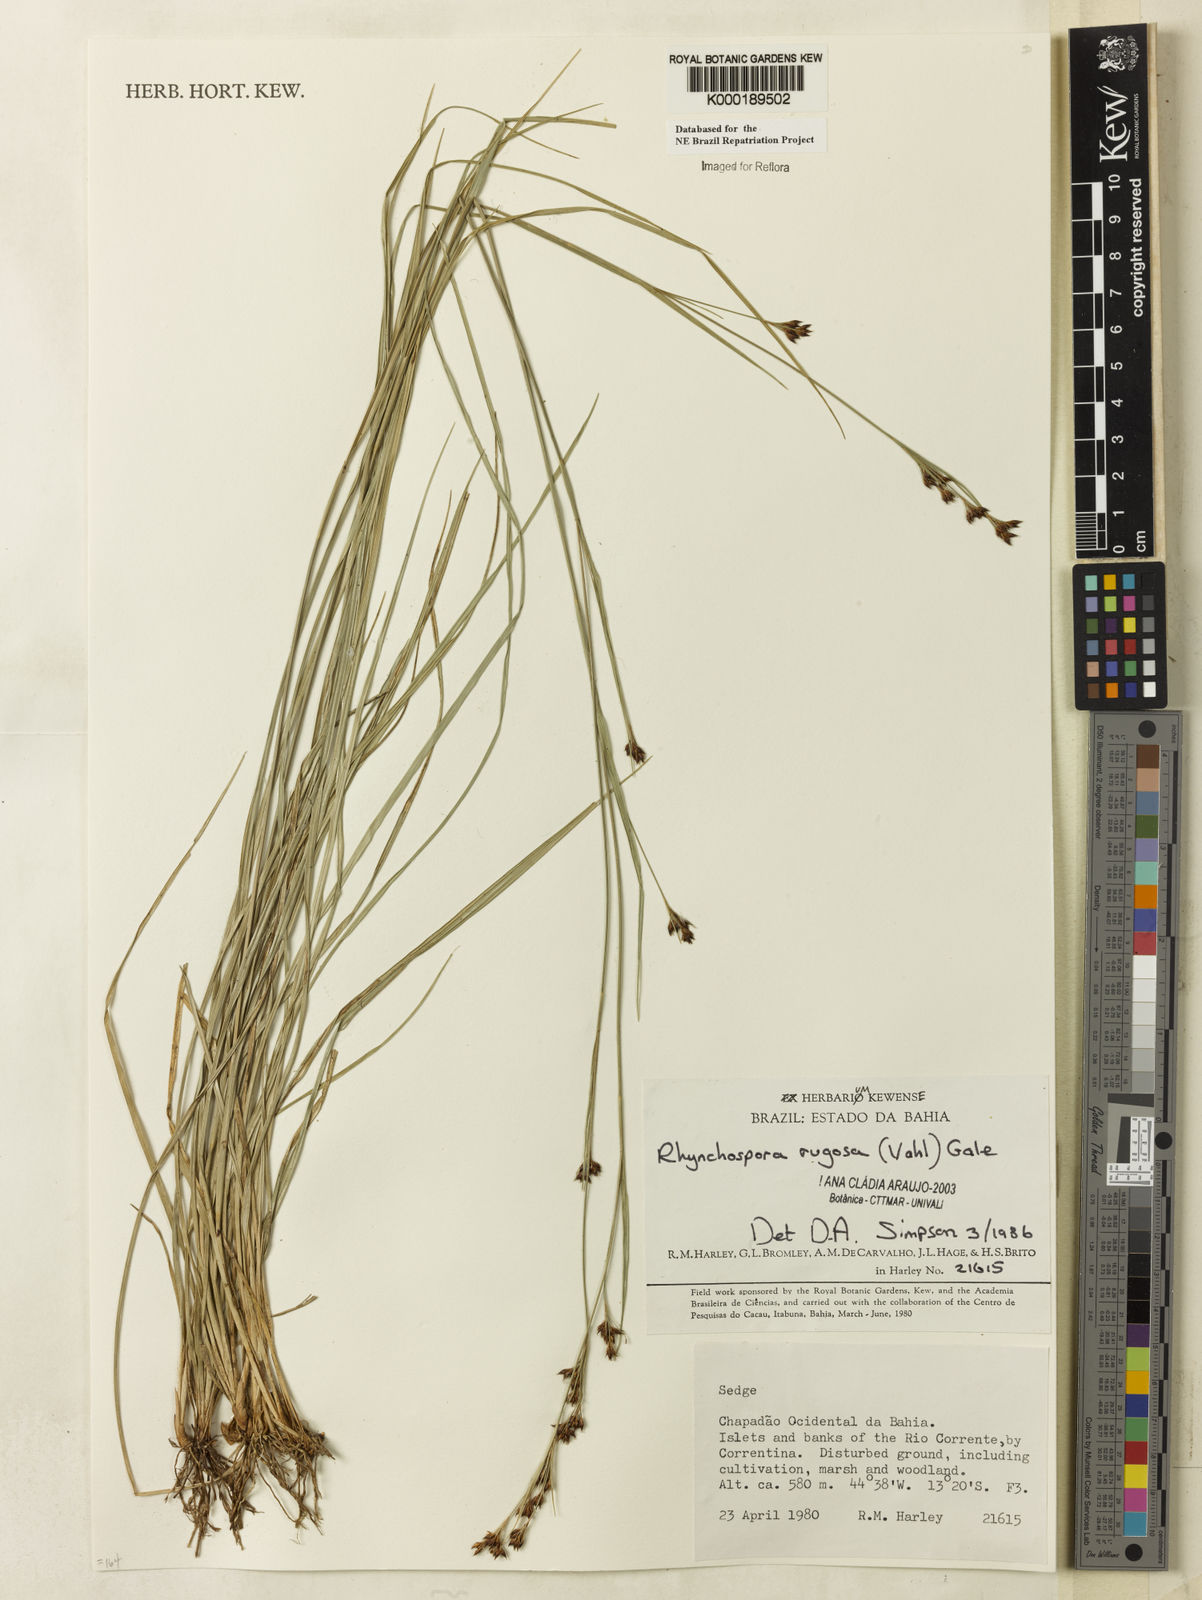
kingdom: Plantae
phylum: Tracheophyta
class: Liliopsida
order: Poales
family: Cyperaceae
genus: Rhynchospora
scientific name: Rhynchospora rugosa
